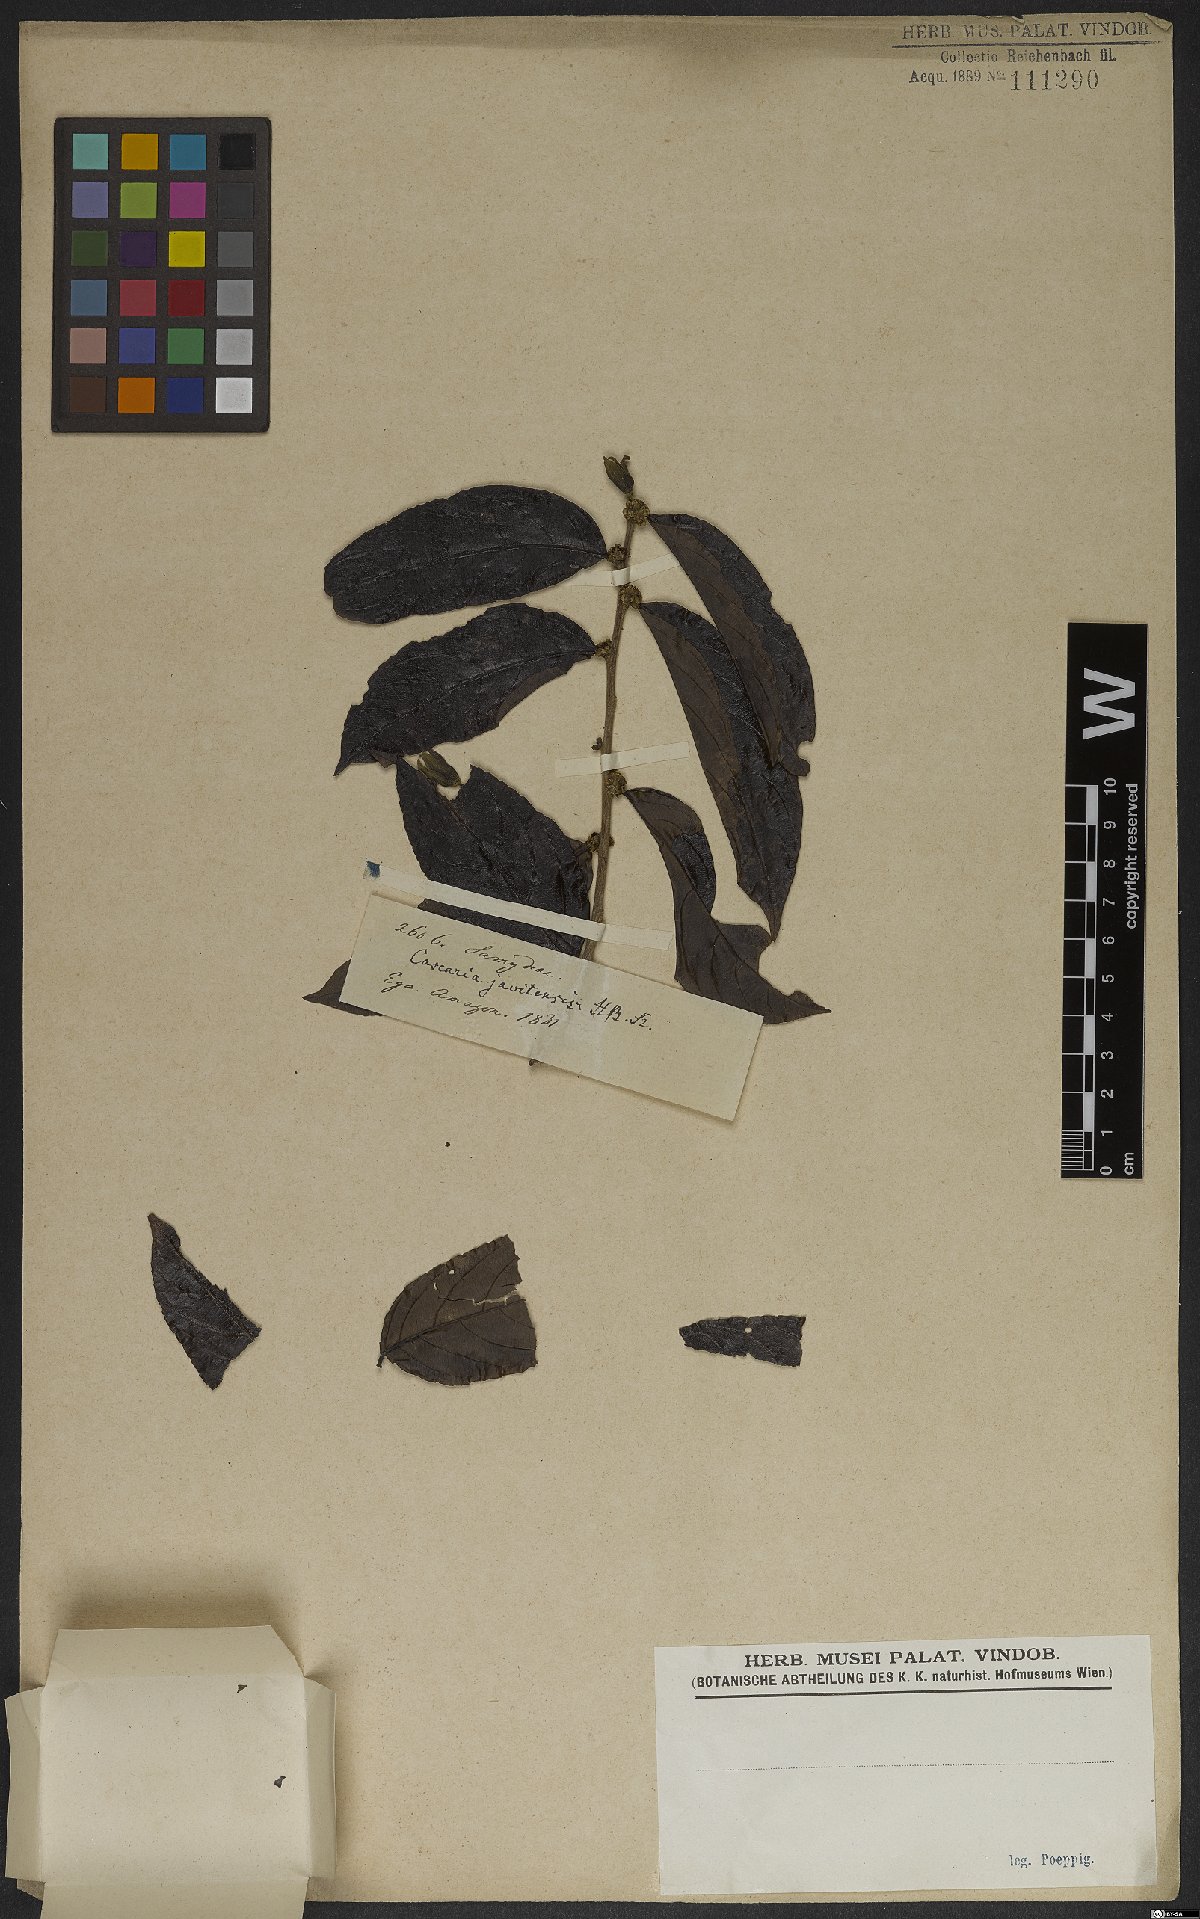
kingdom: Plantae
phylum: Tracheophyta
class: Magnoliopsida
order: Malpighiales
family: Salicaceae
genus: Piparea
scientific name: Piparea multiflora
